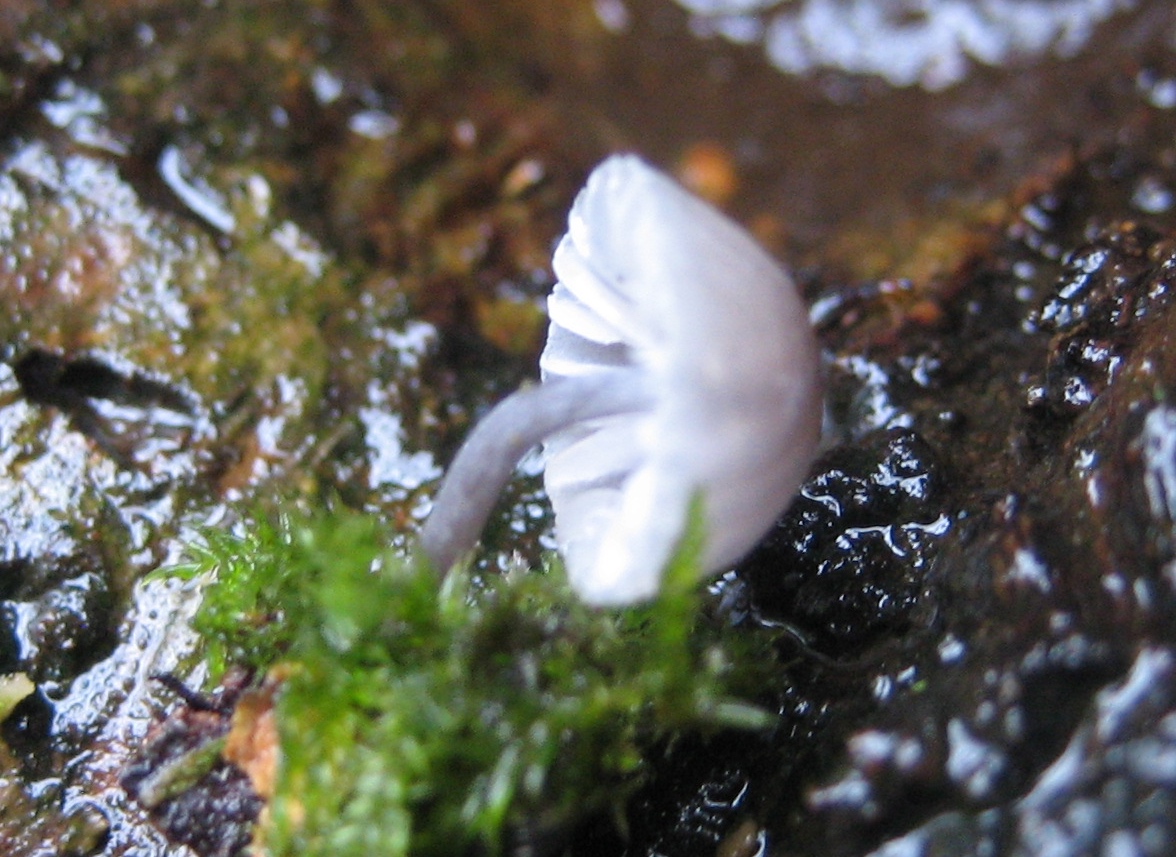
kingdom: Fungi
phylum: Basidiomycota
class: Agaricomycetes
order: Agaricales
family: Mycenaceae
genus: Mycena
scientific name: Mycena pseudocorticola
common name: gråblå bark-huesvamp
